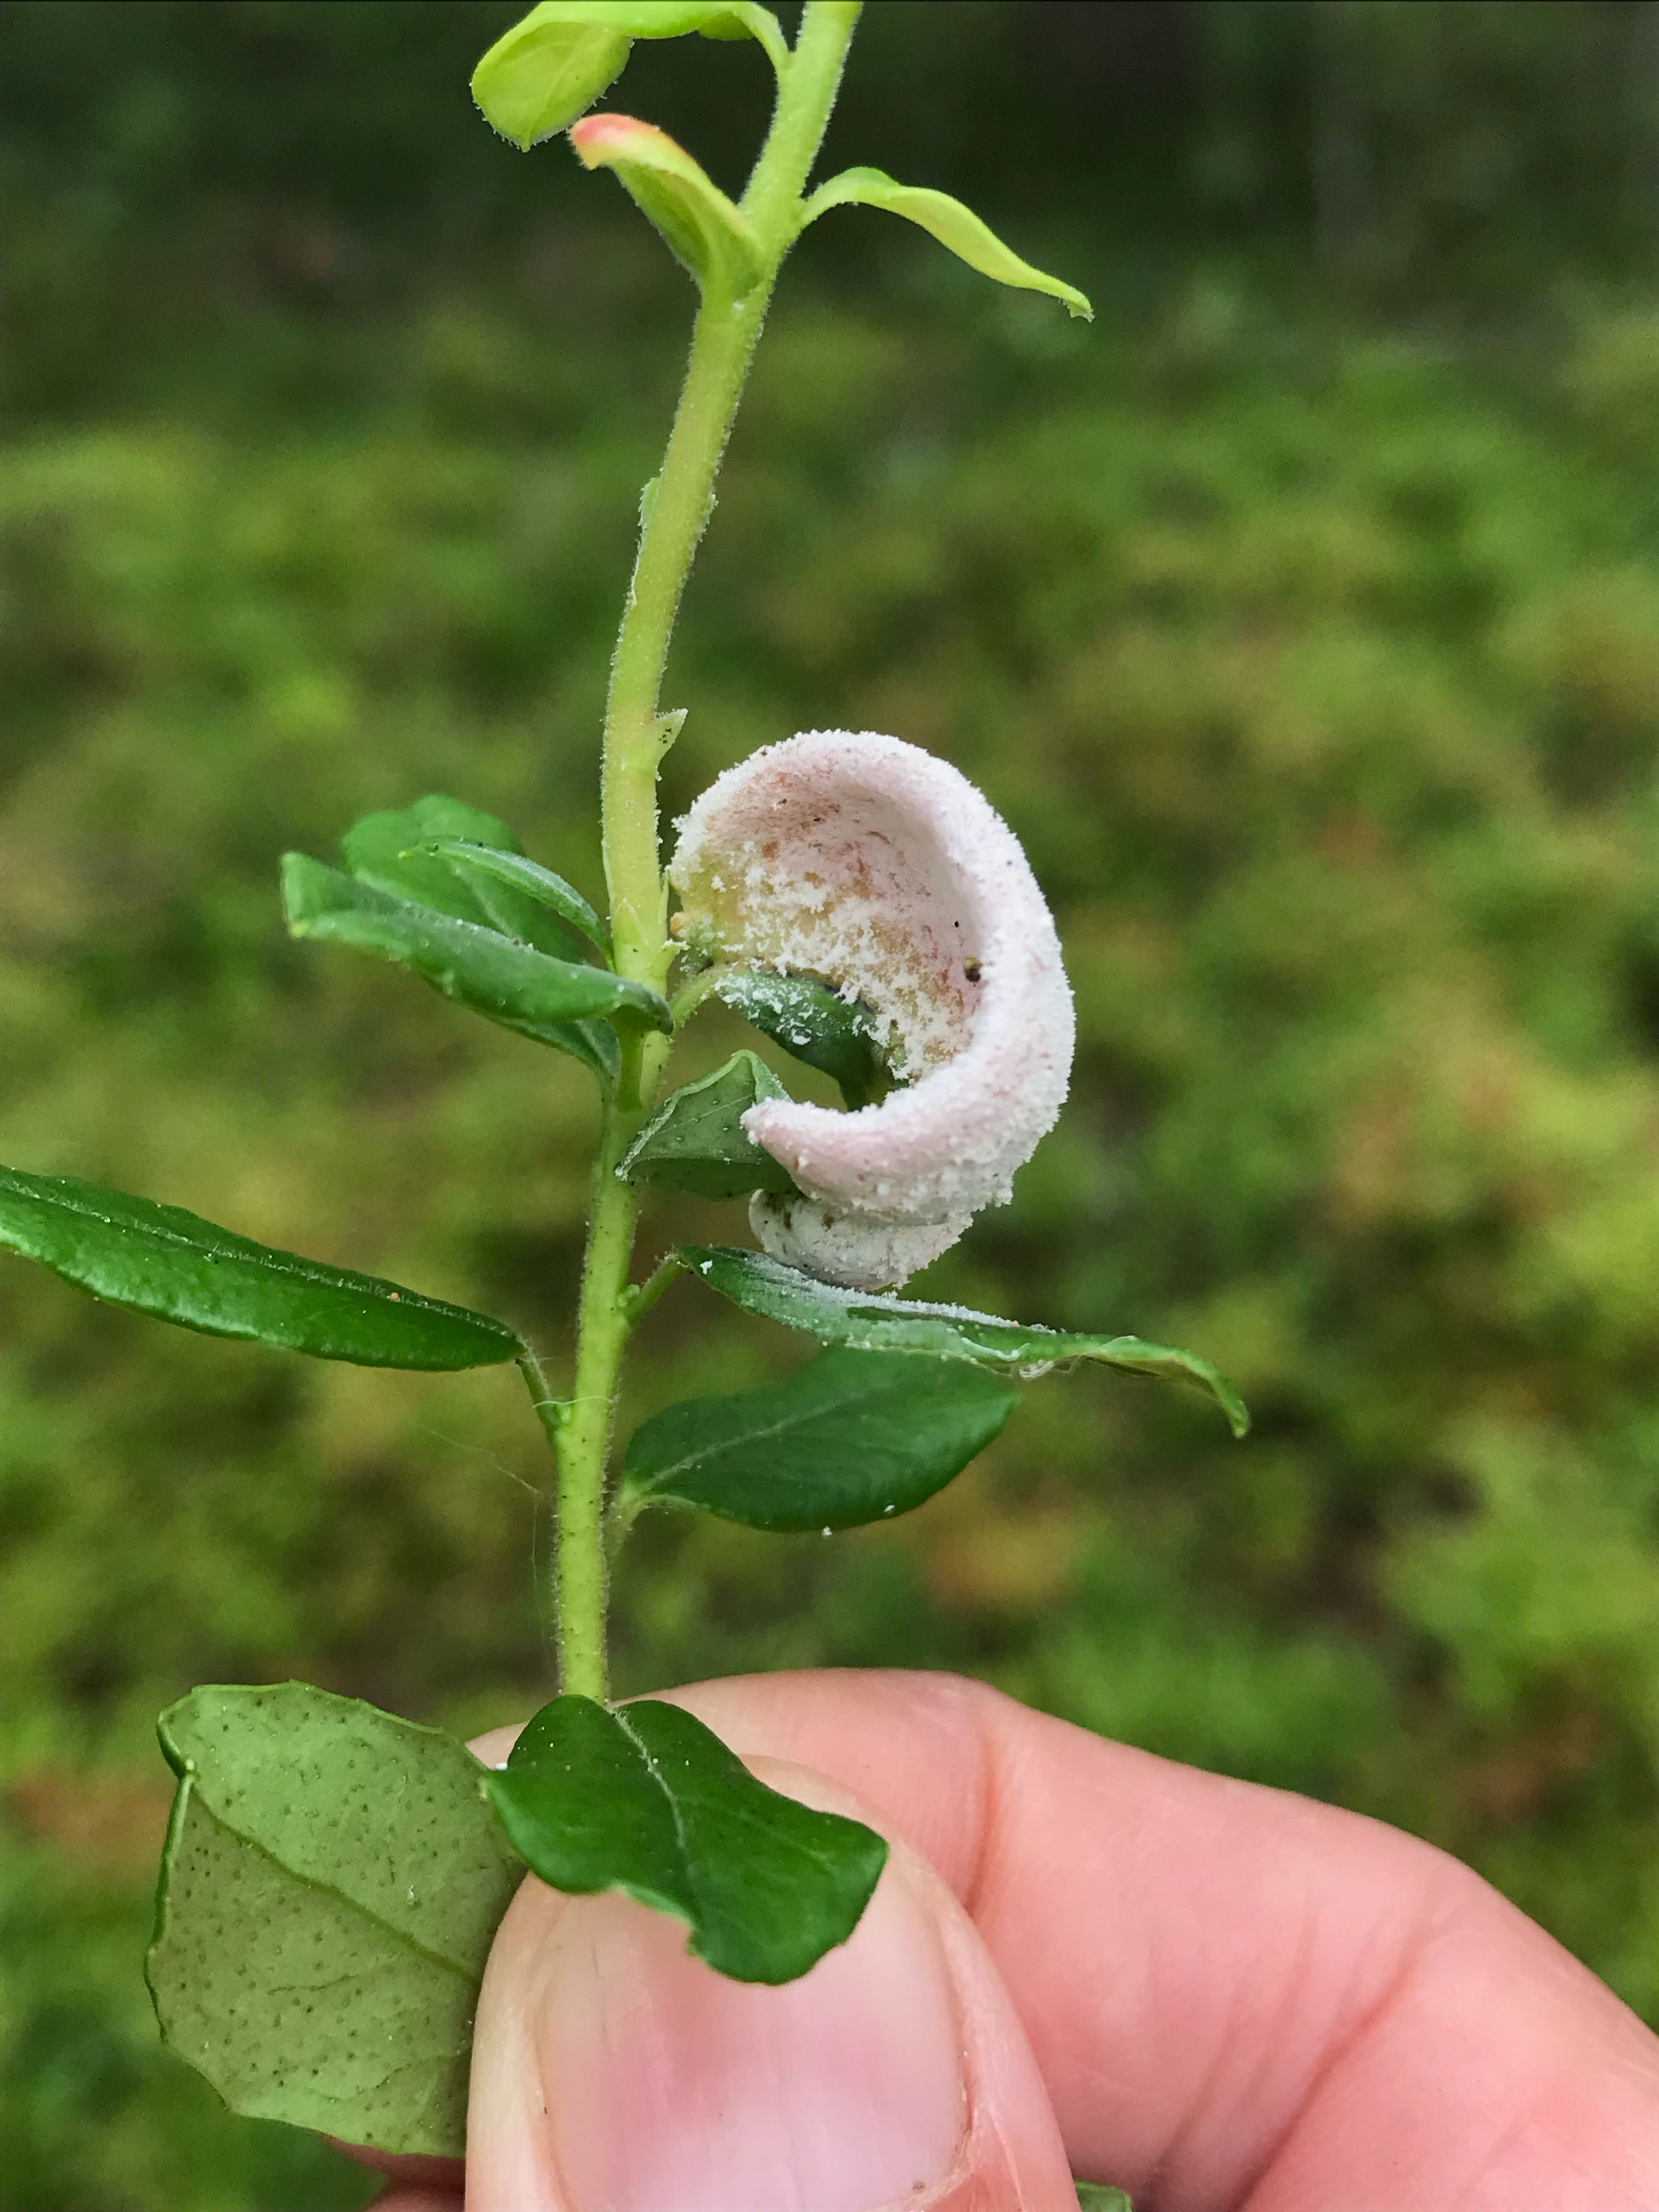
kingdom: Fungi
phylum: Basidiomycota
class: Exobasidiomycetes
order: Exobasidiales
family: Exobasidiaceae
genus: Exobasidium
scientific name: Exobasidium vaccinii
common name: tyttebærblad-bøllesvamp
